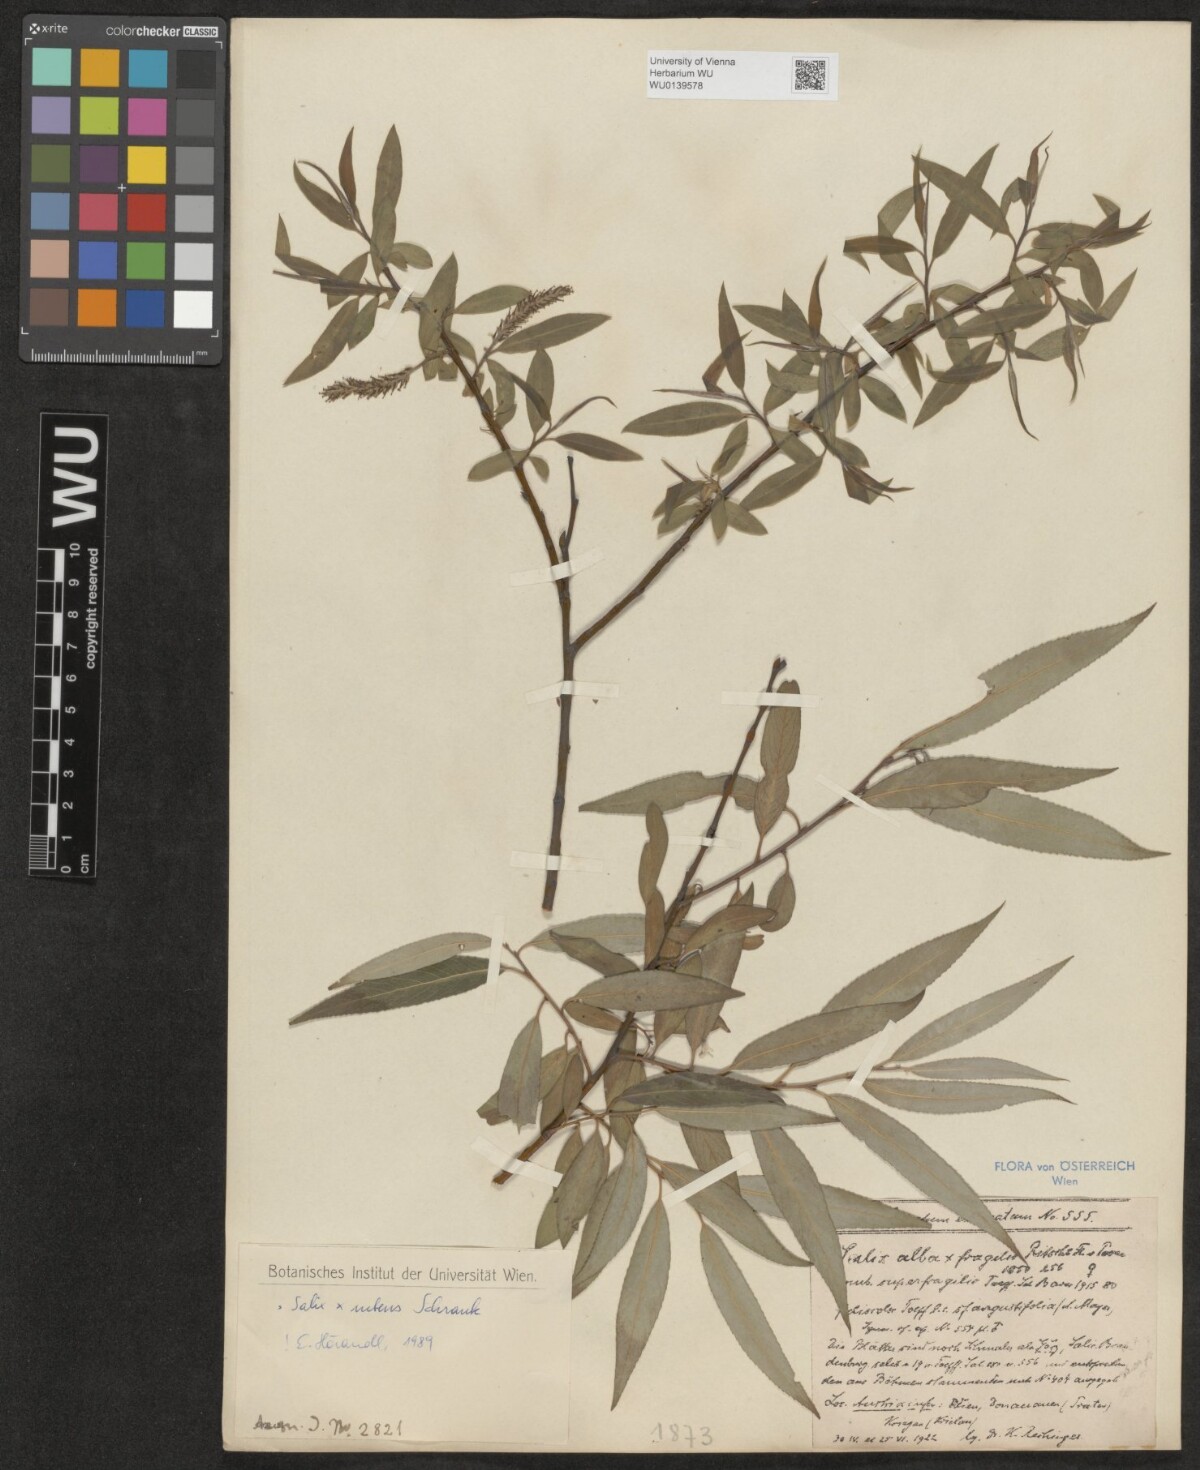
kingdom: Plantae
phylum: Tracheophyta
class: Magnoliopsida
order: Malpighiales
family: Salicaceae
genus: Salix
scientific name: Salix rubens
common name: Hybrid crack willow
